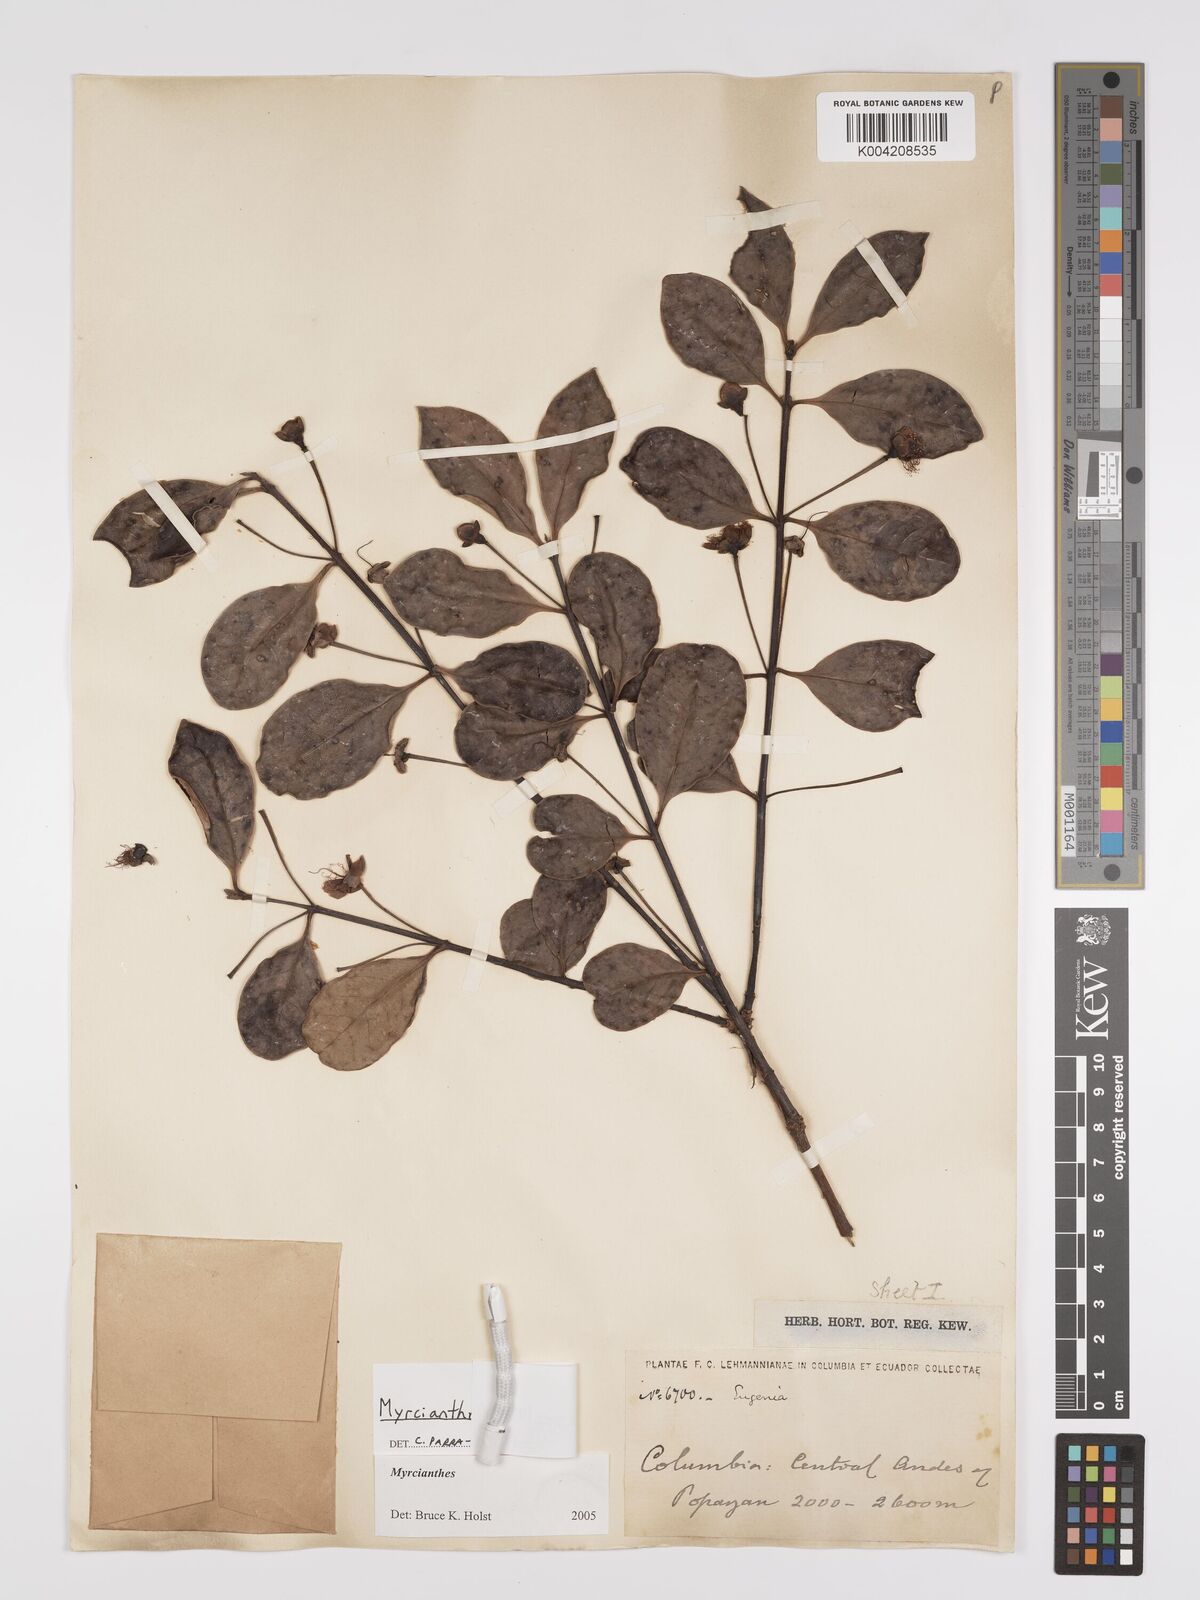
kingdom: Plantae
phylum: Tracheophyta
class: Magnoliopsida
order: Myrtales
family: Myrtaceae
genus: Myrcianthes
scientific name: Myrcianthes orthostemon
